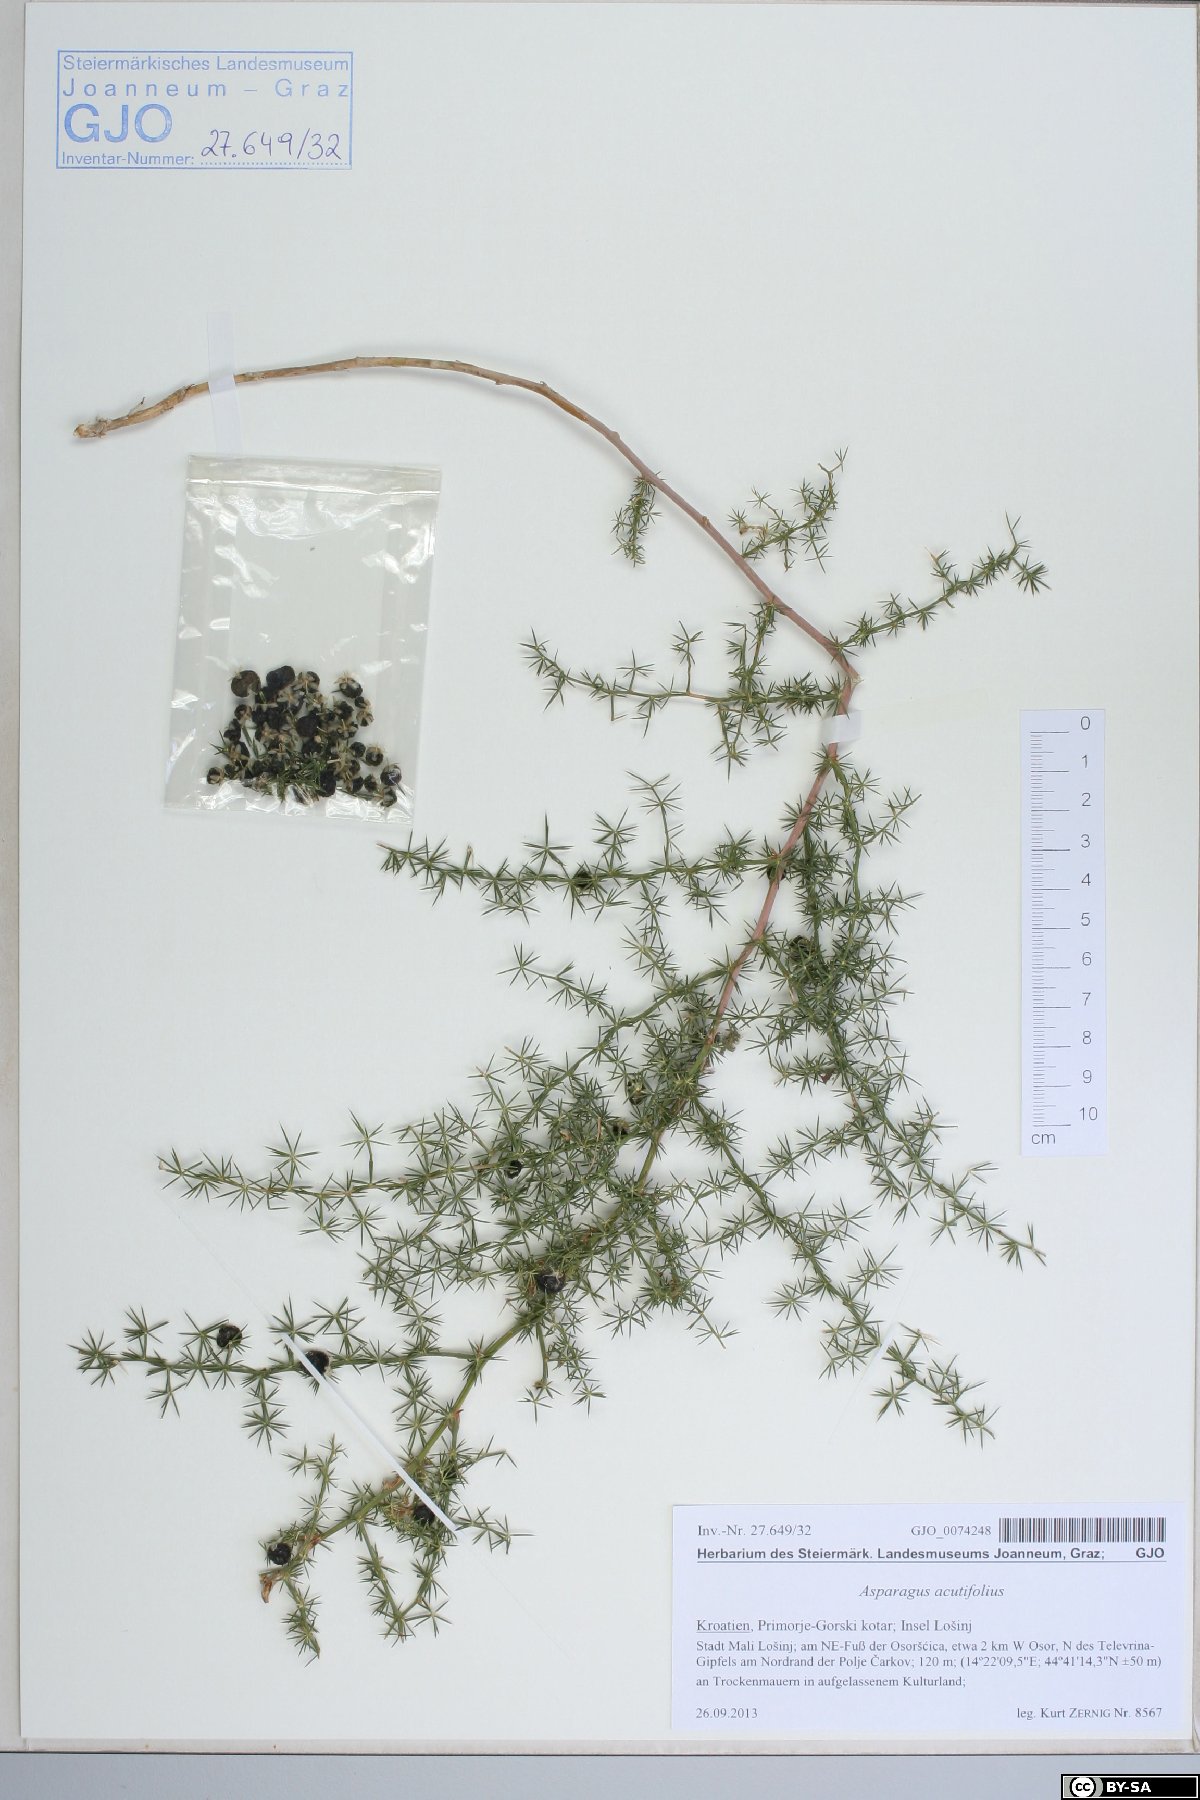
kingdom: Plantae
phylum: Tracheophyta
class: Liliopsida
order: Asparagales
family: Asparagaceae
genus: Asparagus
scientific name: Asparagus acutifolius
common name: Wild asparagus
